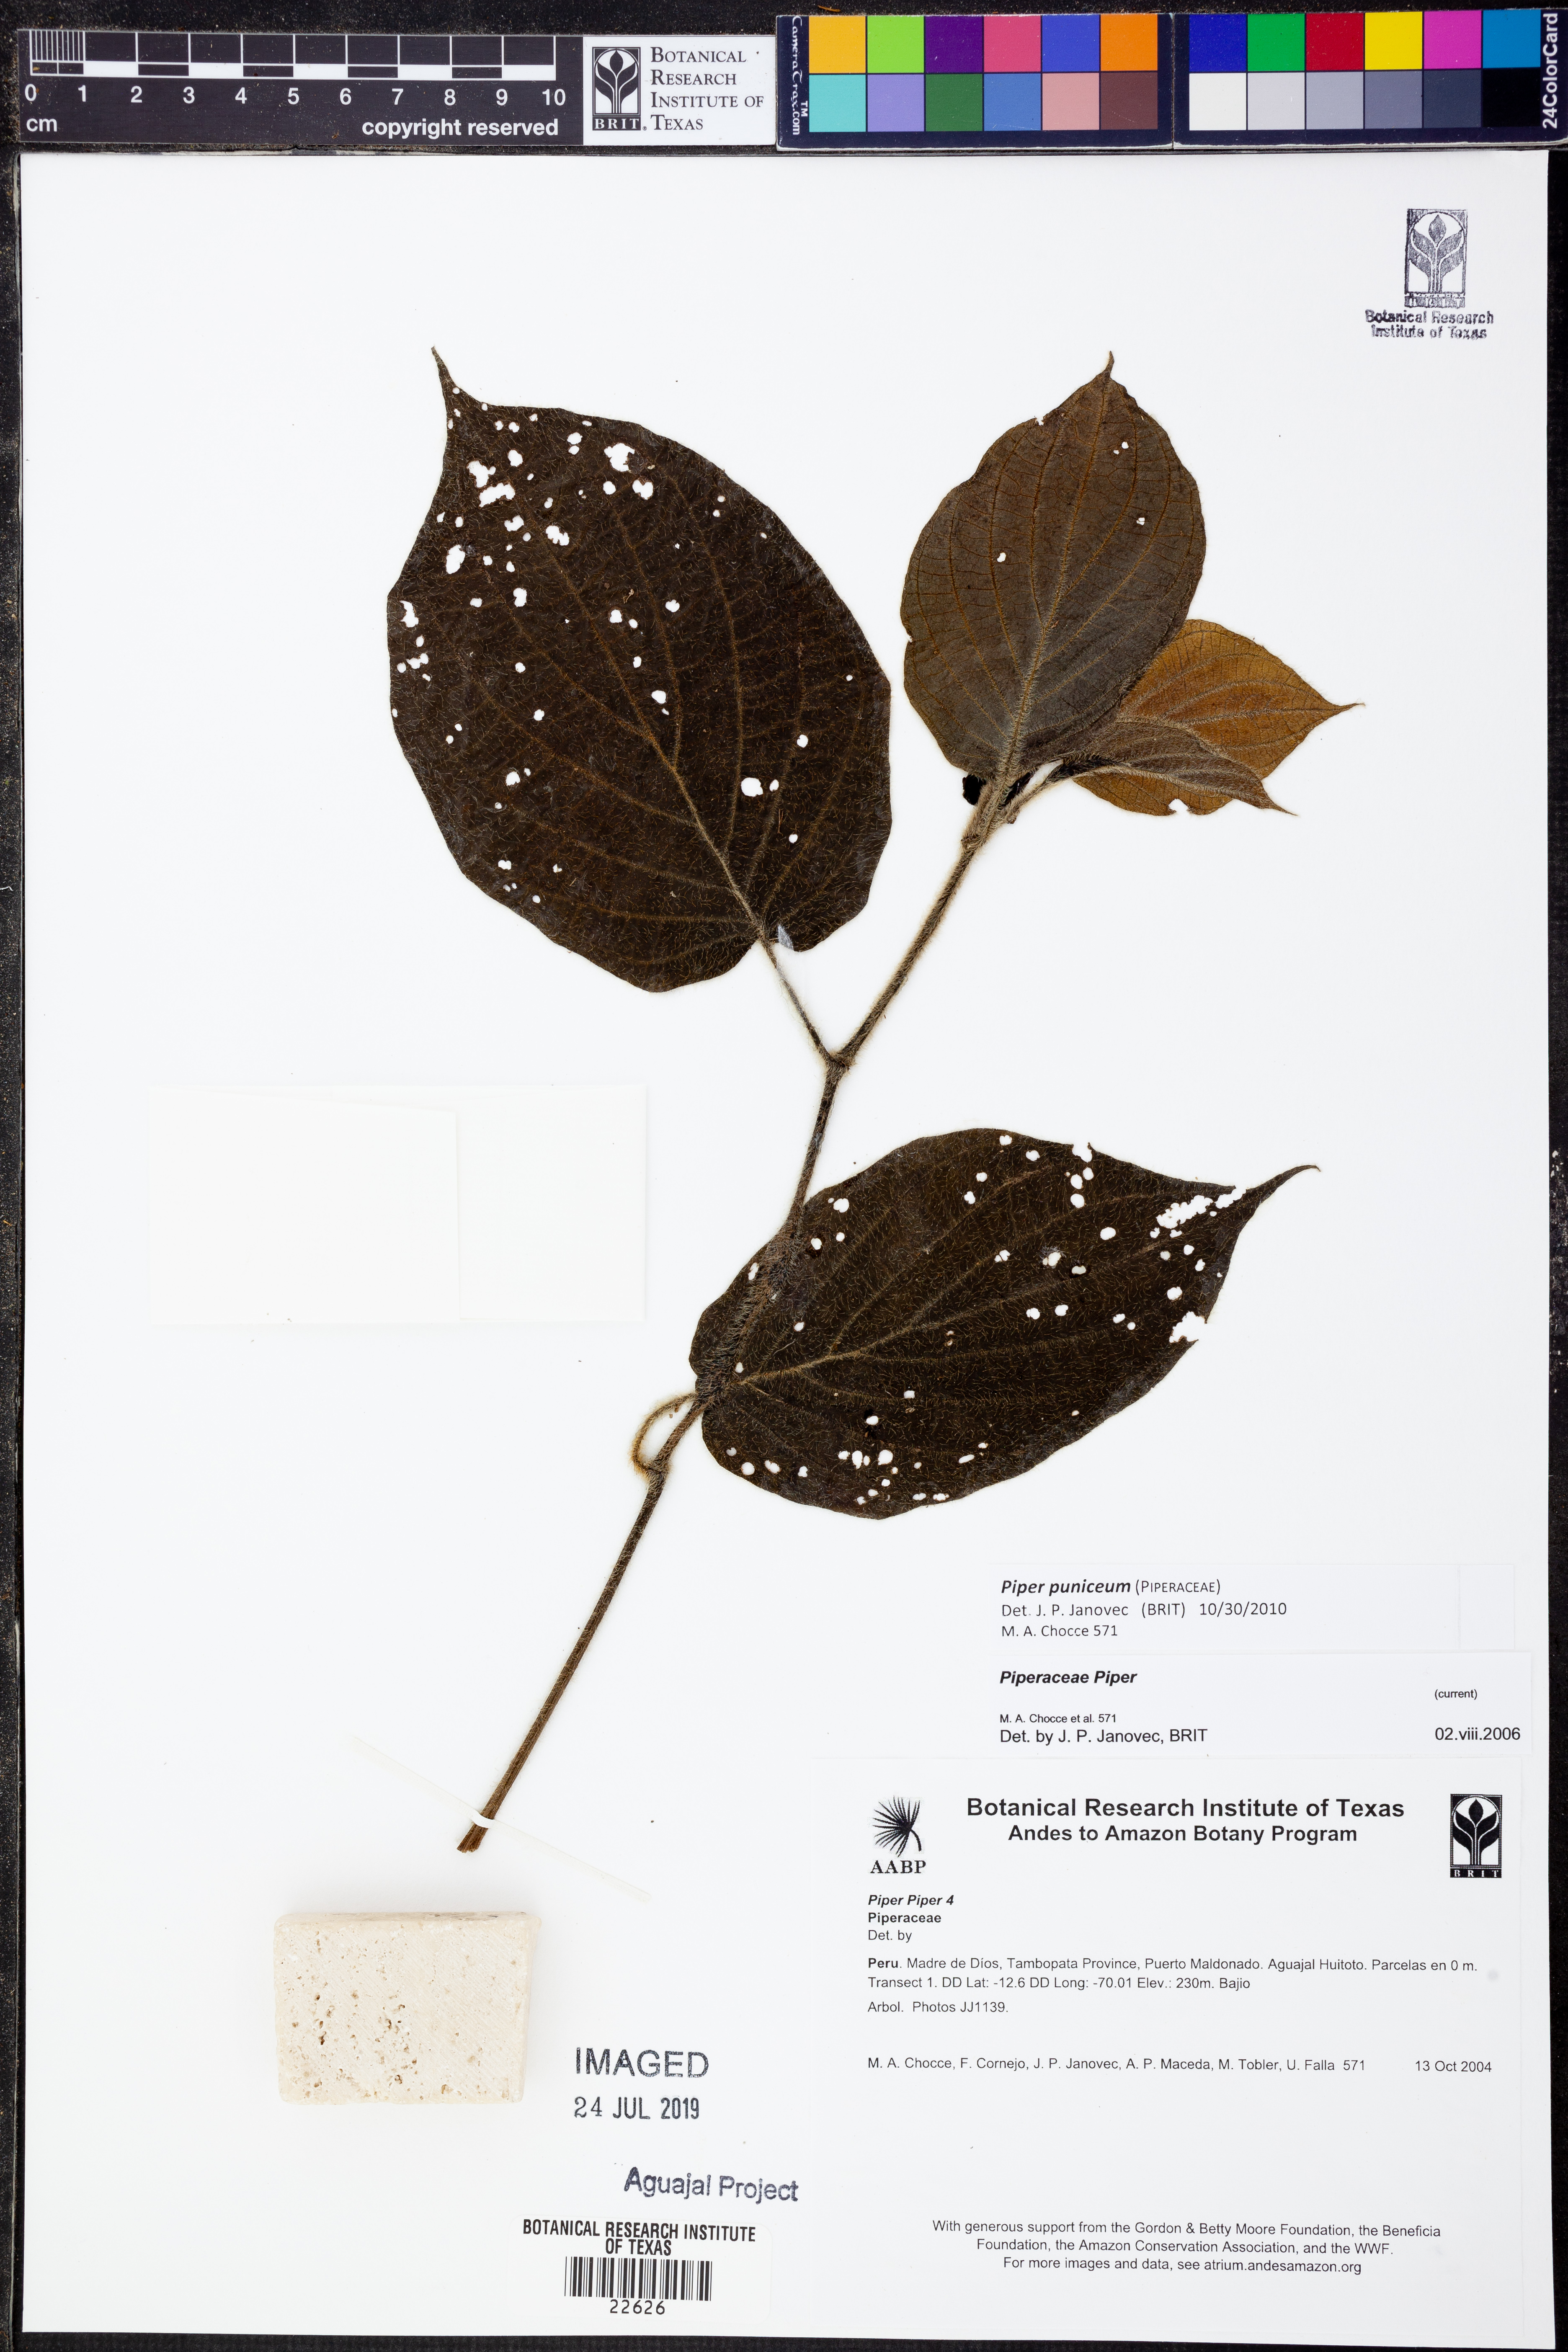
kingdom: Plantae
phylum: Tracheophyta
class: Magnoliopsida
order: Piperales
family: Piperaceae
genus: Piper
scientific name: Piper puniceum
